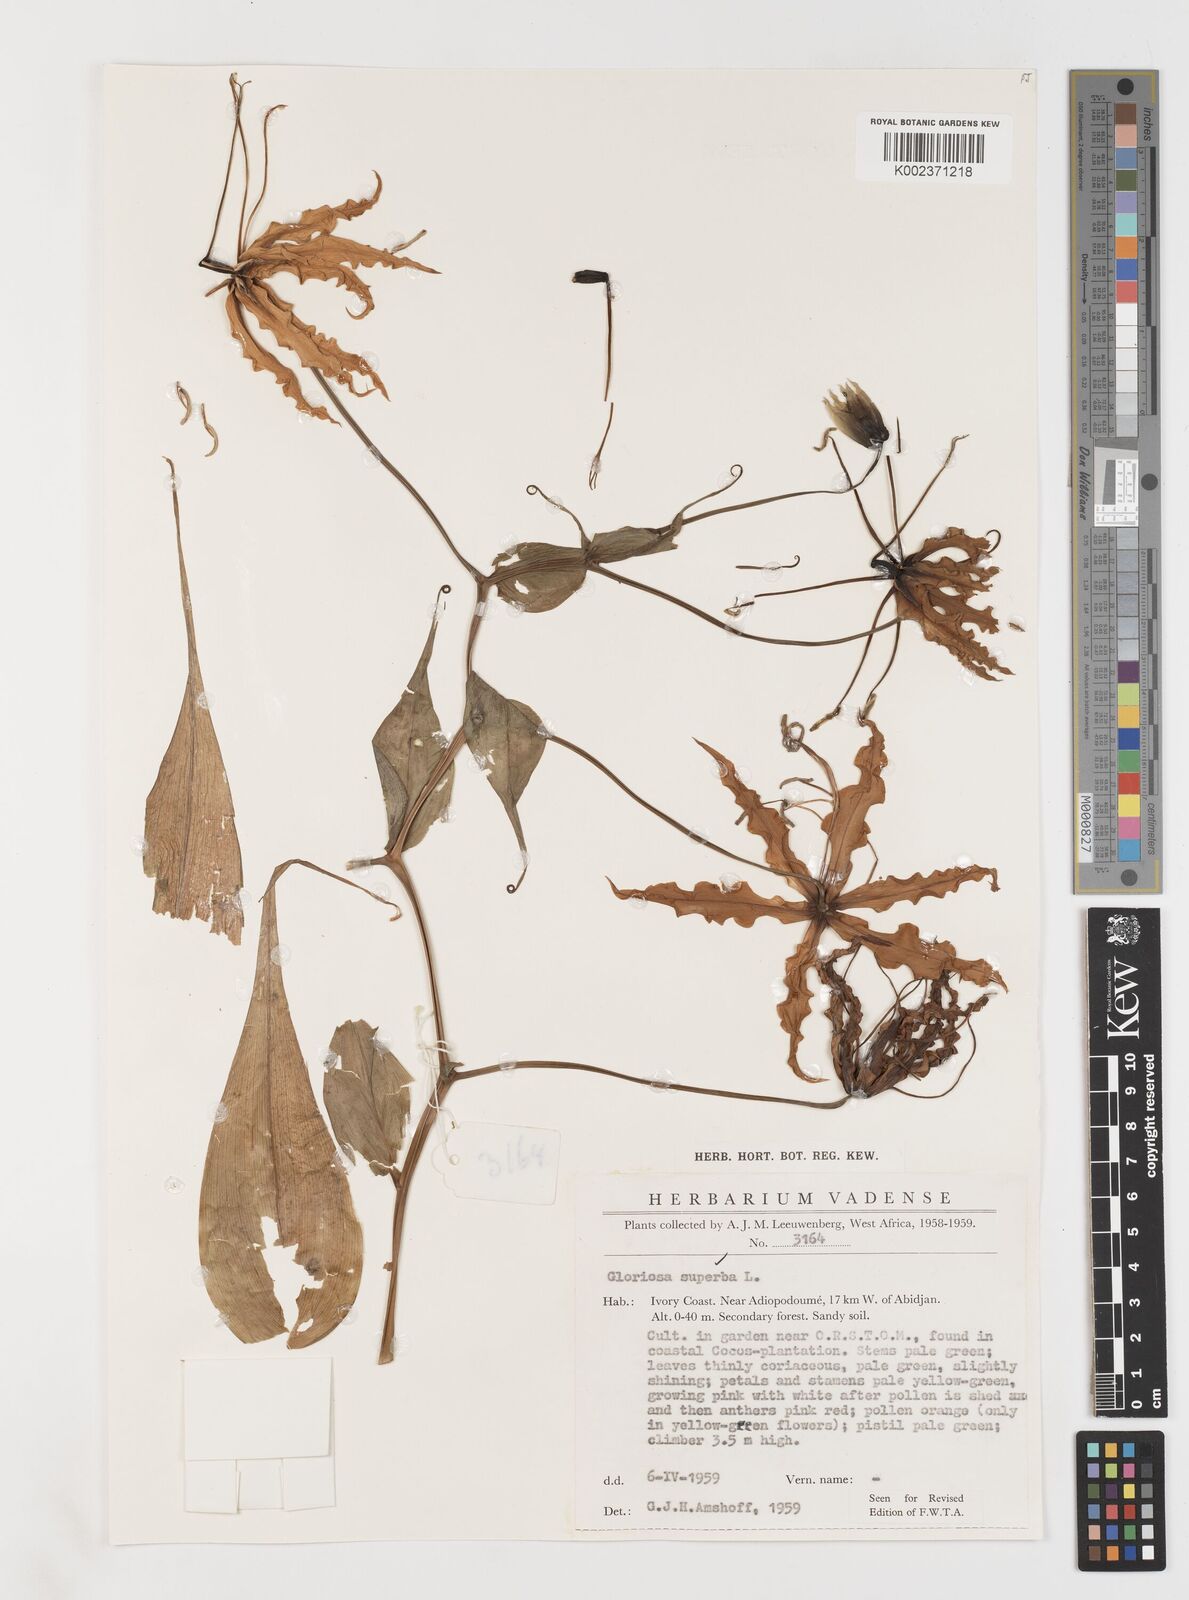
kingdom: Plantae
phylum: Tracheophyta
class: Liliopsida
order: Liliales
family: Colchicaceae
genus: Gloriosa
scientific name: Gloriosa superba
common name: Flame lily
